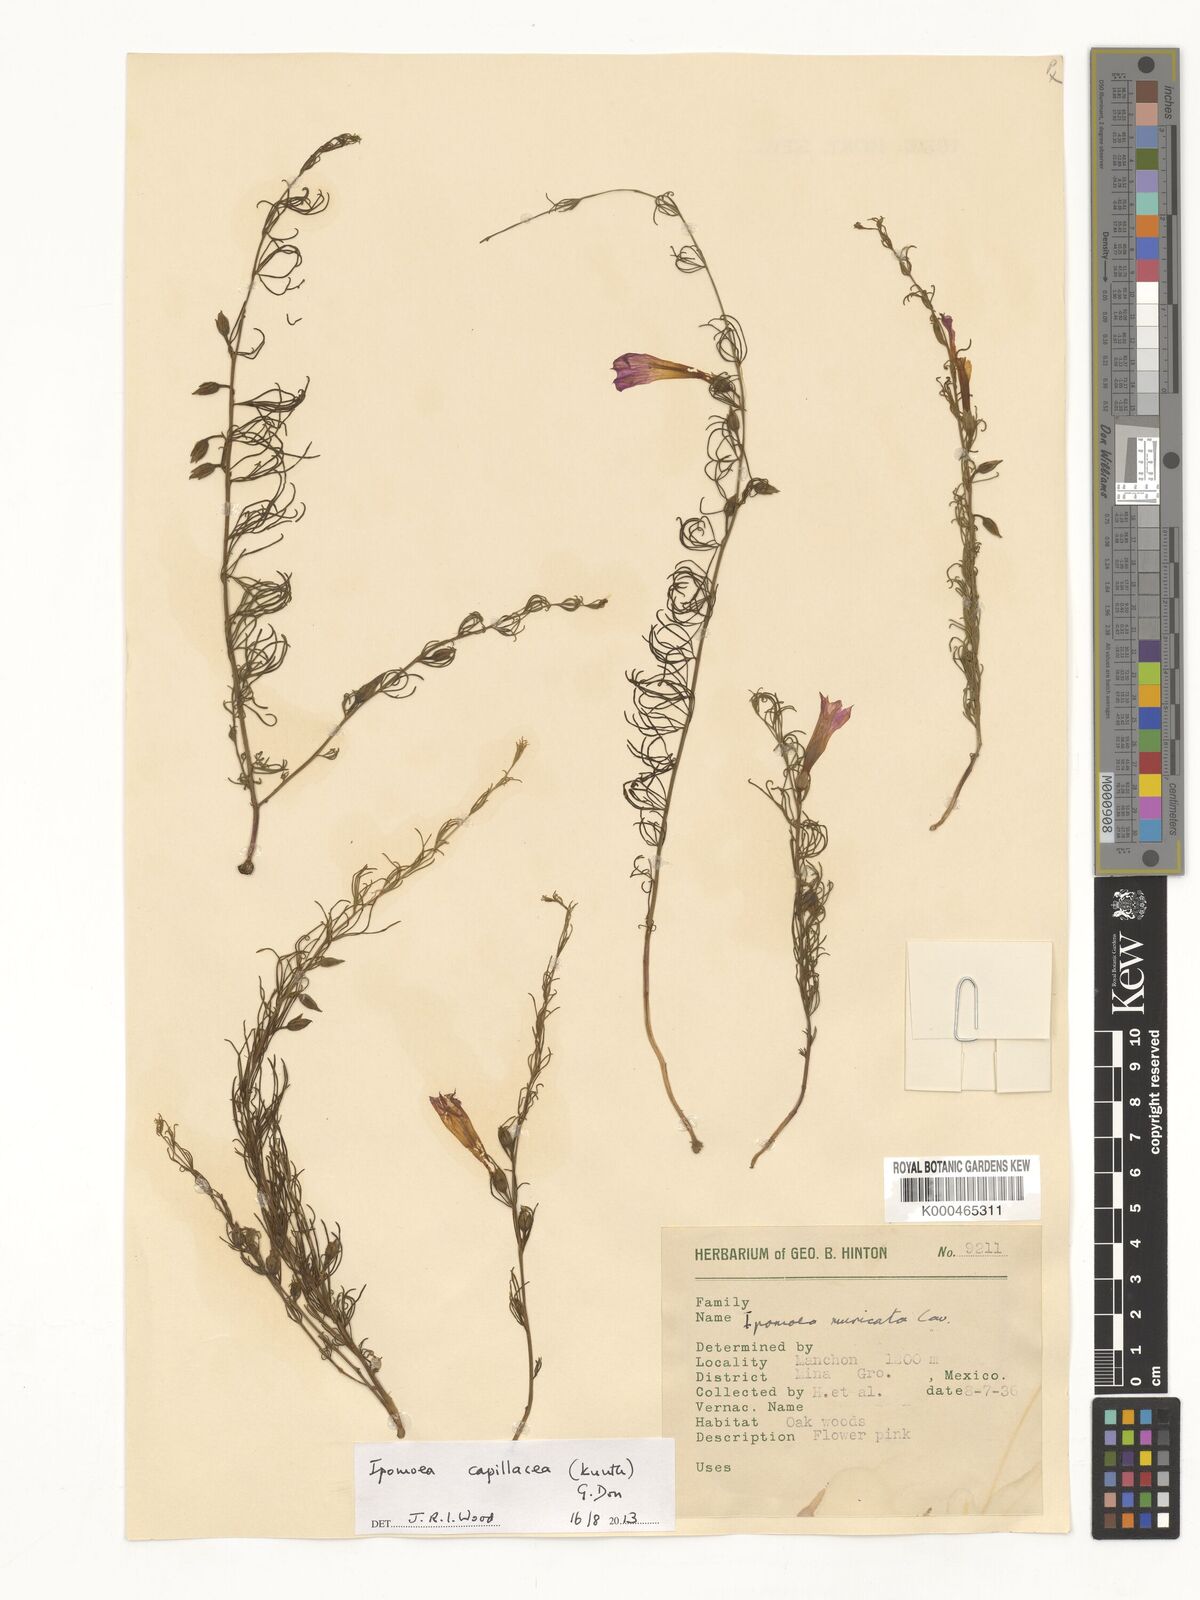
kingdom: Plantae
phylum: Tracheophyta
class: Magnoliopsida
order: Solanales
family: Convolvulaceae
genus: Ipomoea
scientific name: Ipomoea muricata
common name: Lilac-bell
